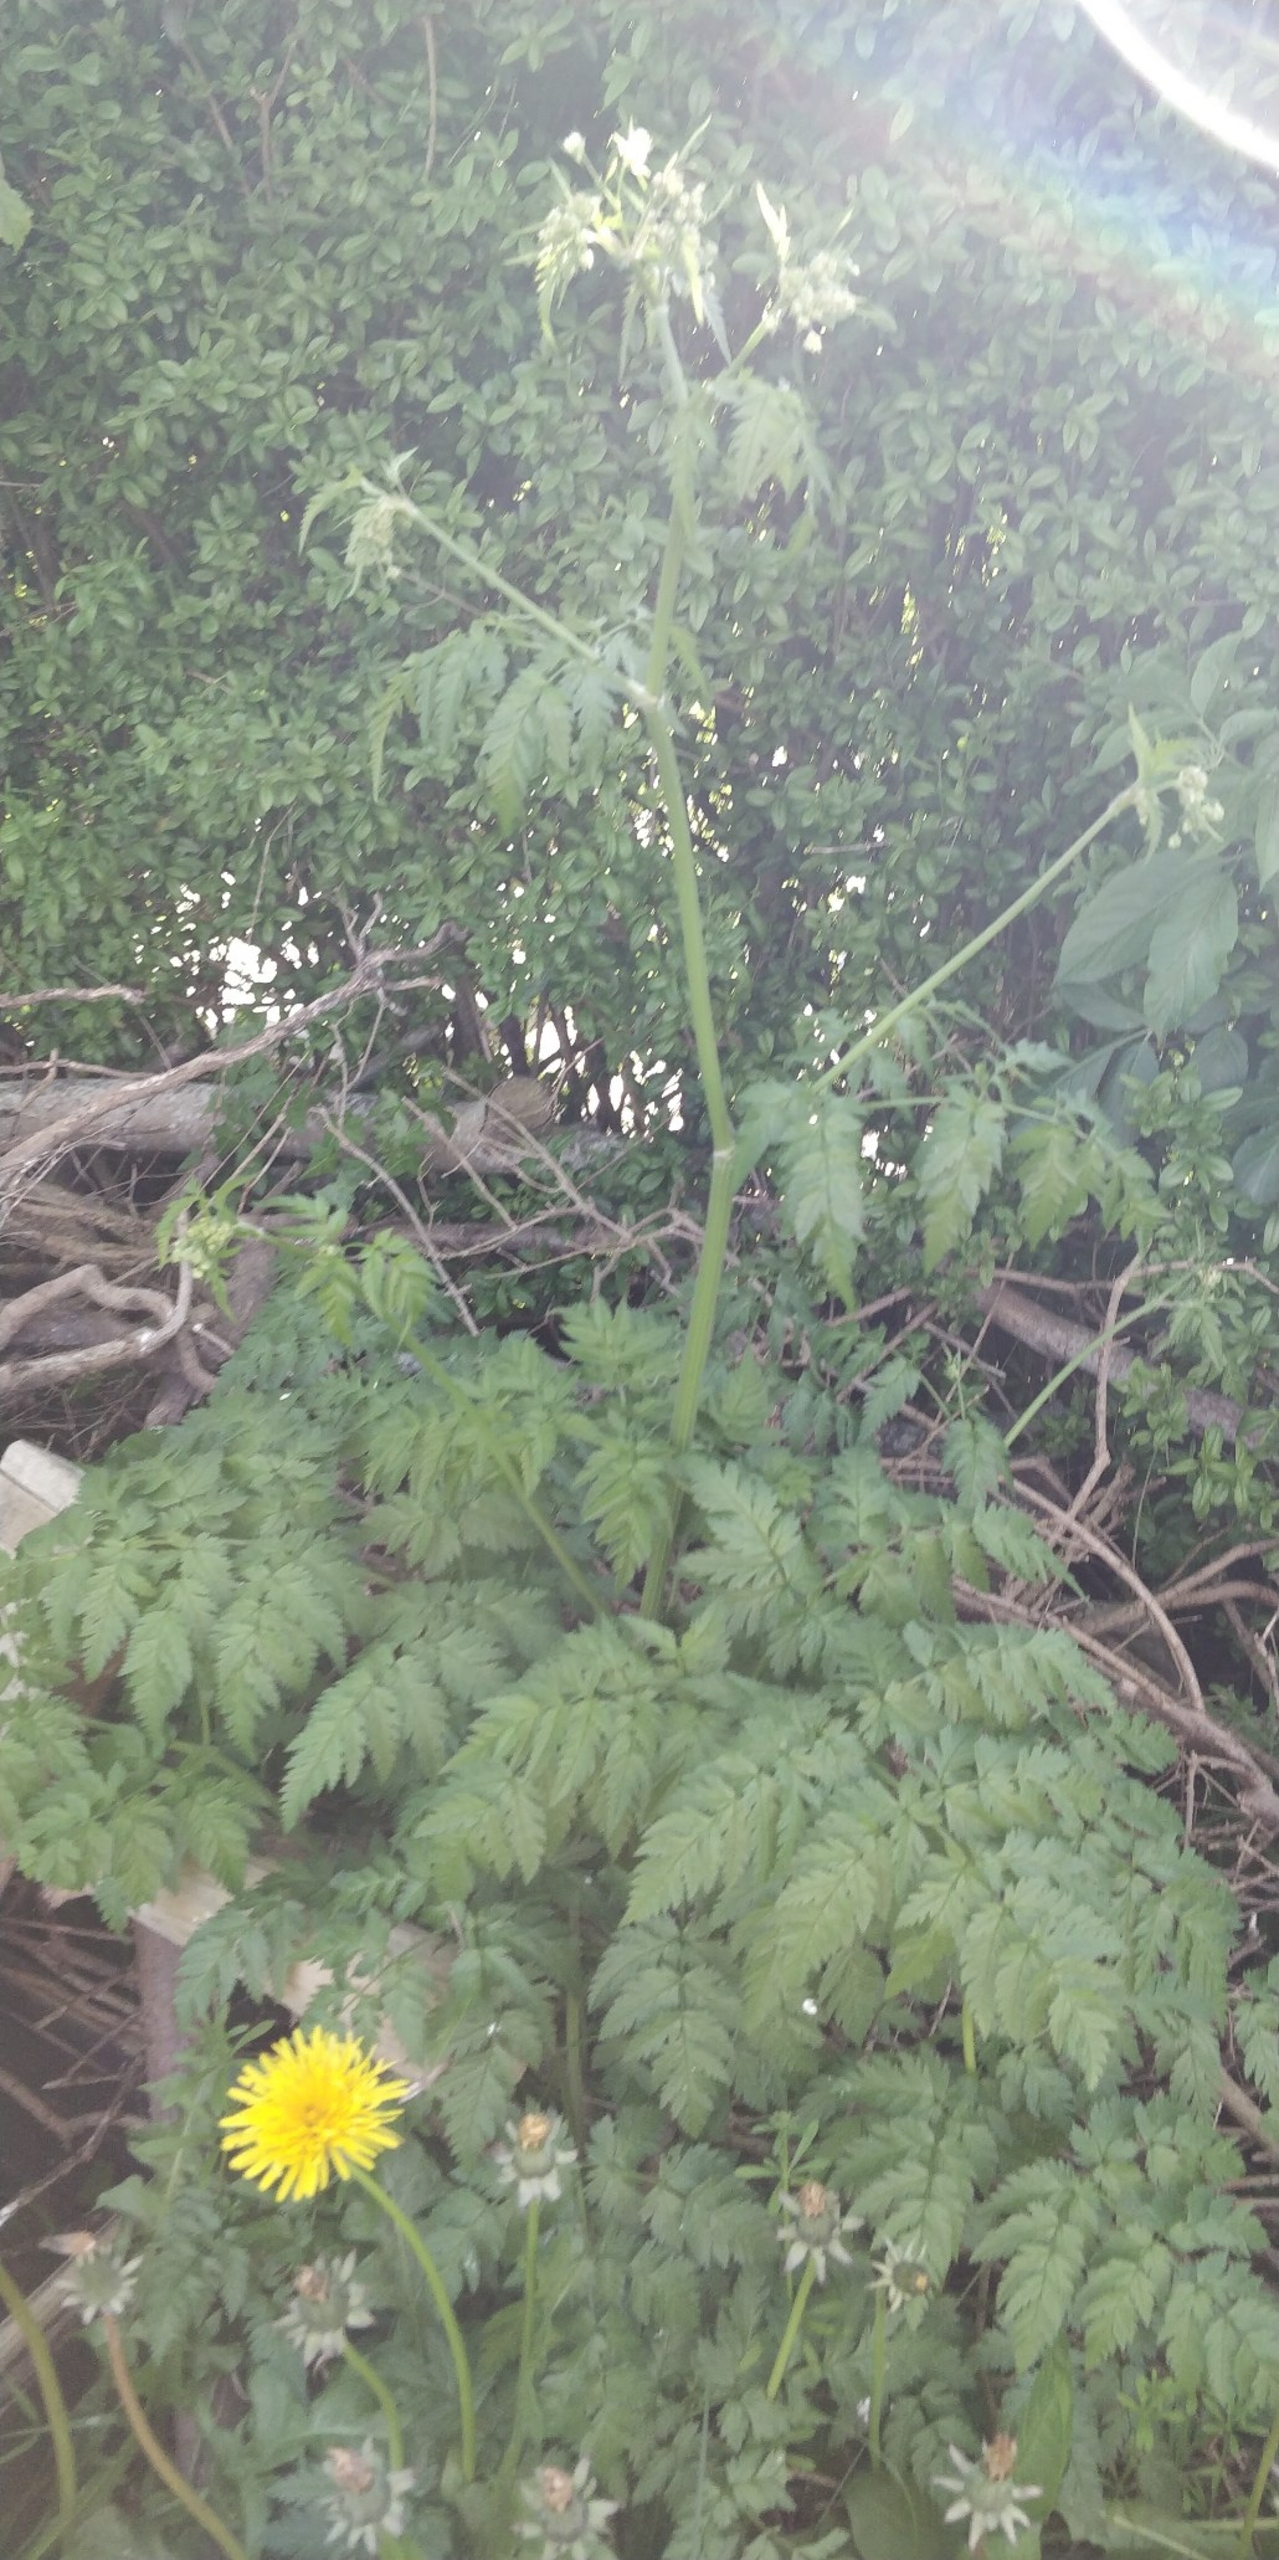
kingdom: Plantae
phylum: Tracheophyta
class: Magnoliopsida
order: Apiales
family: Apiaceae
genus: Anthriscus
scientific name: Anthriscus sylvestris
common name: Vild kørvel
